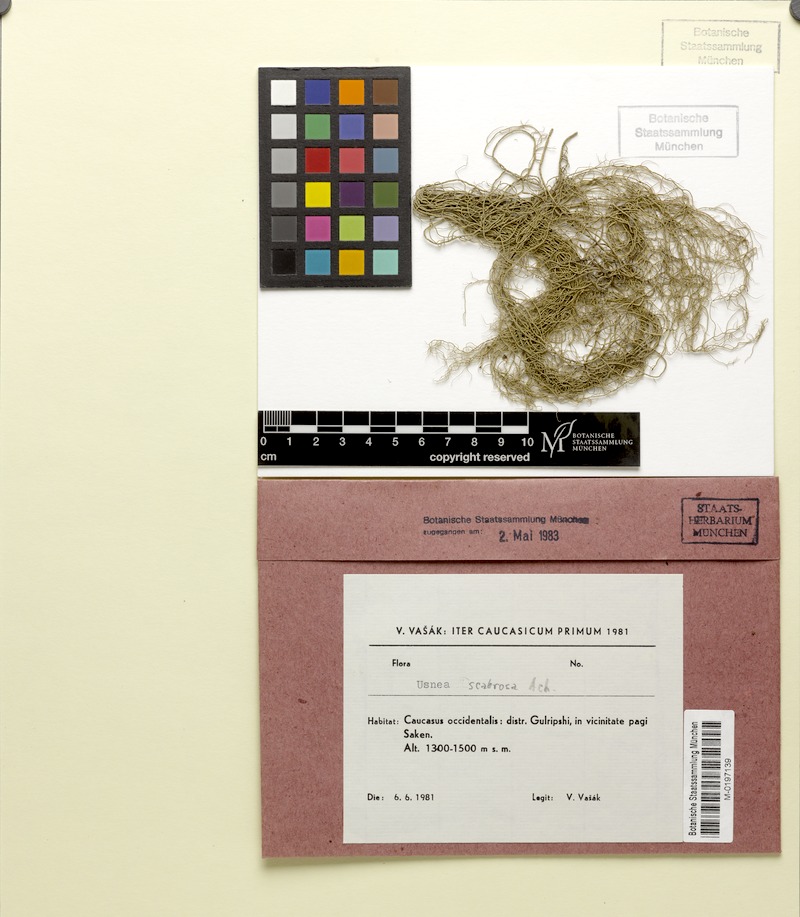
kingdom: Fungi
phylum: Ascomycota
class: Lecanoromycetes
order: Lecanorales
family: Parmeliaceae
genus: Usnea
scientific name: Usnea scabrida
